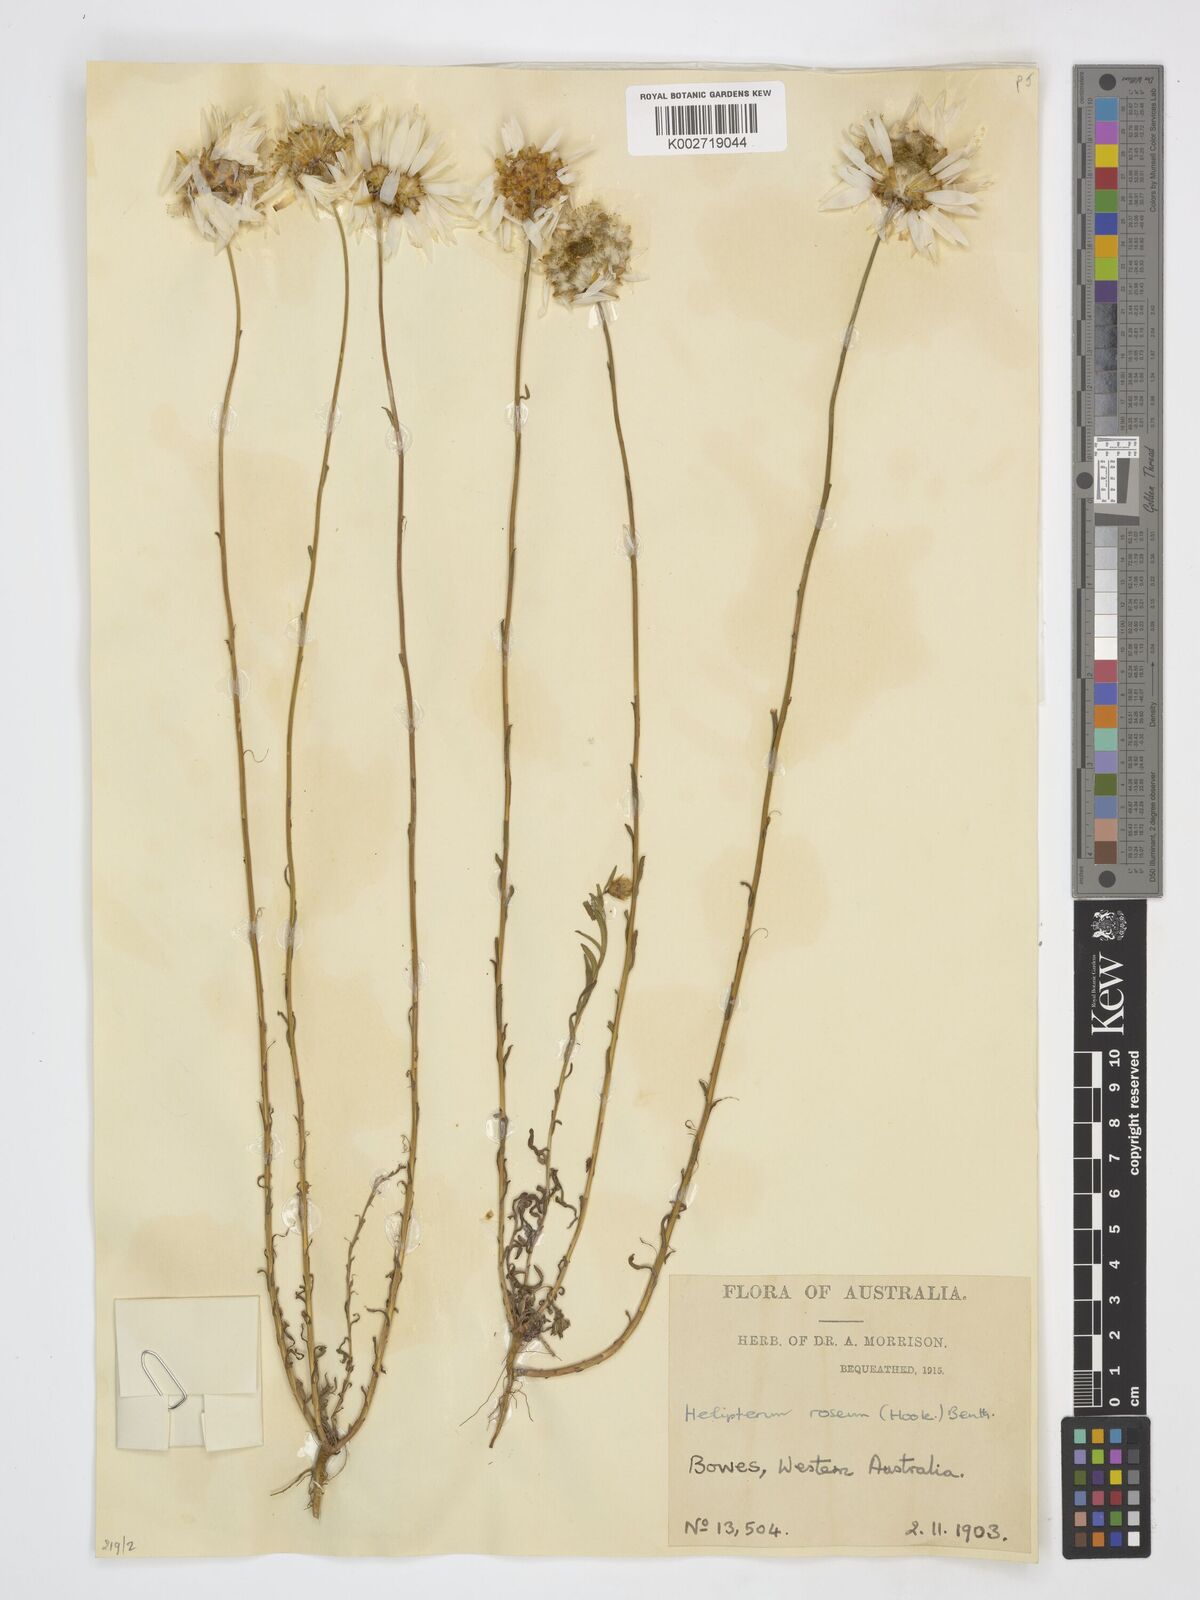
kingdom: Plantae
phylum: Tracheophyta
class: Magnoliopsida
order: Asterales
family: Asteraceae
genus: Rhodanthe
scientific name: Rhodanthe chlorocephala
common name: Rosy sunray
